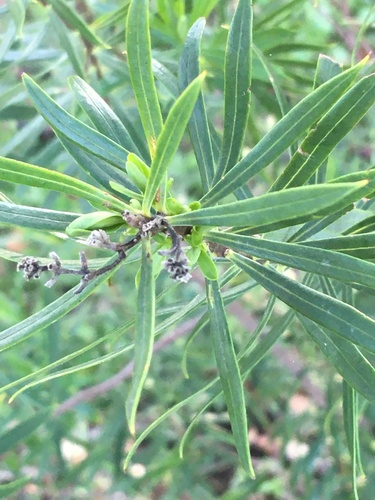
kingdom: Plantae
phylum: Tracheophyta
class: Magnoliopsida
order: Malvales
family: Thymelaeaceae
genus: Daphne
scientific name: Daphne gnidium
